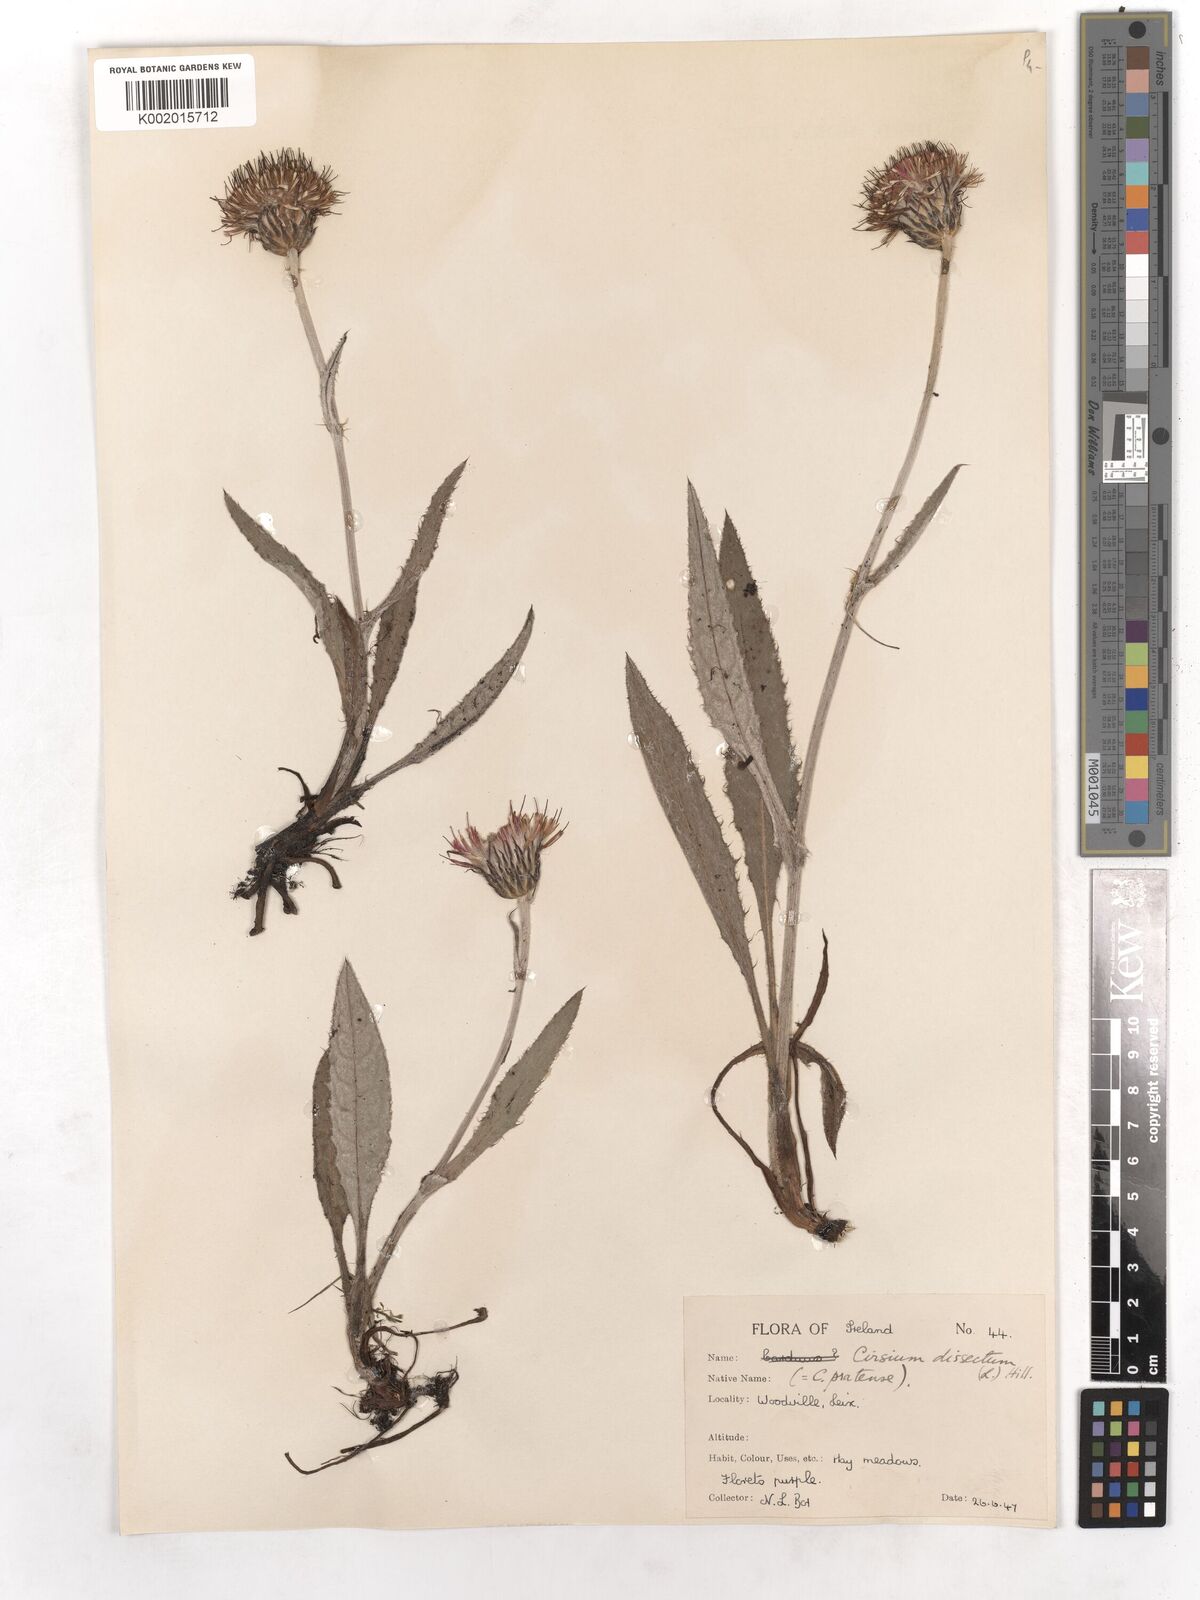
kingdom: Plantae
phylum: Tracheophyta
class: Magnoliopsida
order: Asterales
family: Asteraceae
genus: Cirsium
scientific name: Cirsium dissectum
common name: Meadow thistle
